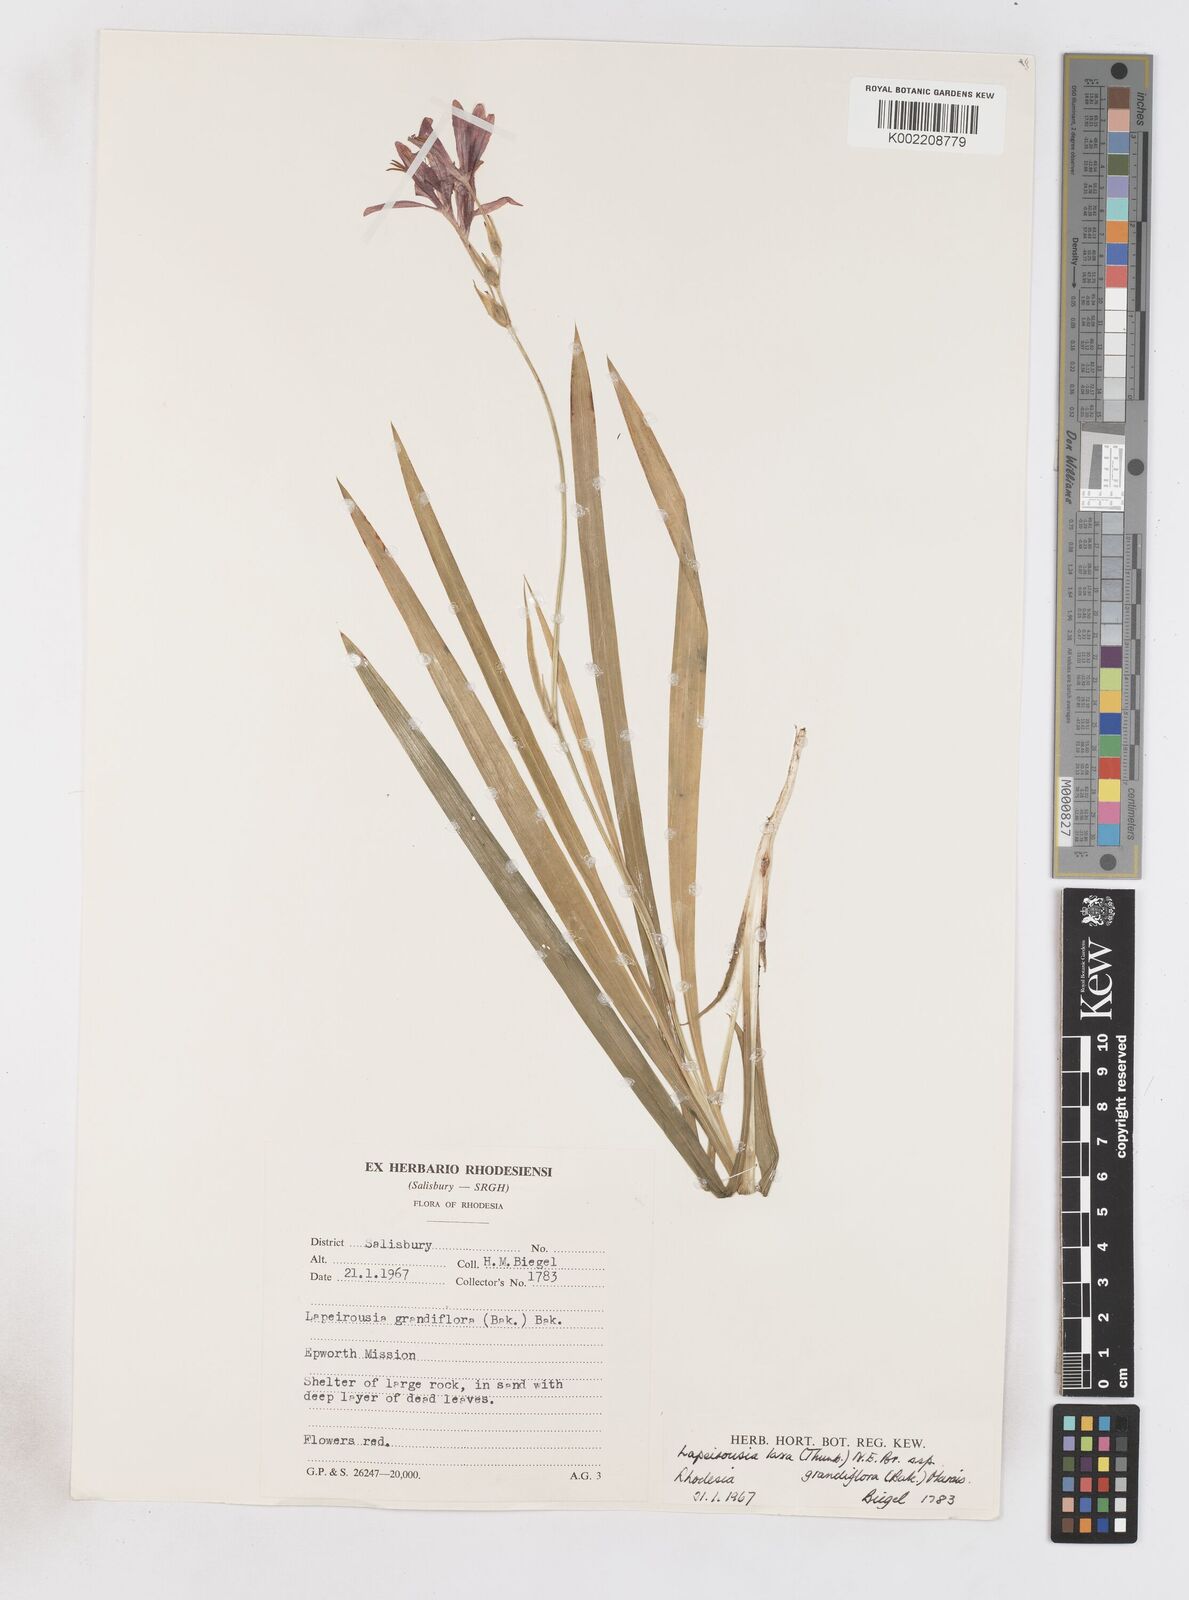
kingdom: Plantae
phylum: Tracheophyta
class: Liliopsida
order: Asparagales
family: Iridaceae
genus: Freesia
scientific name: Freesia grandiflora
